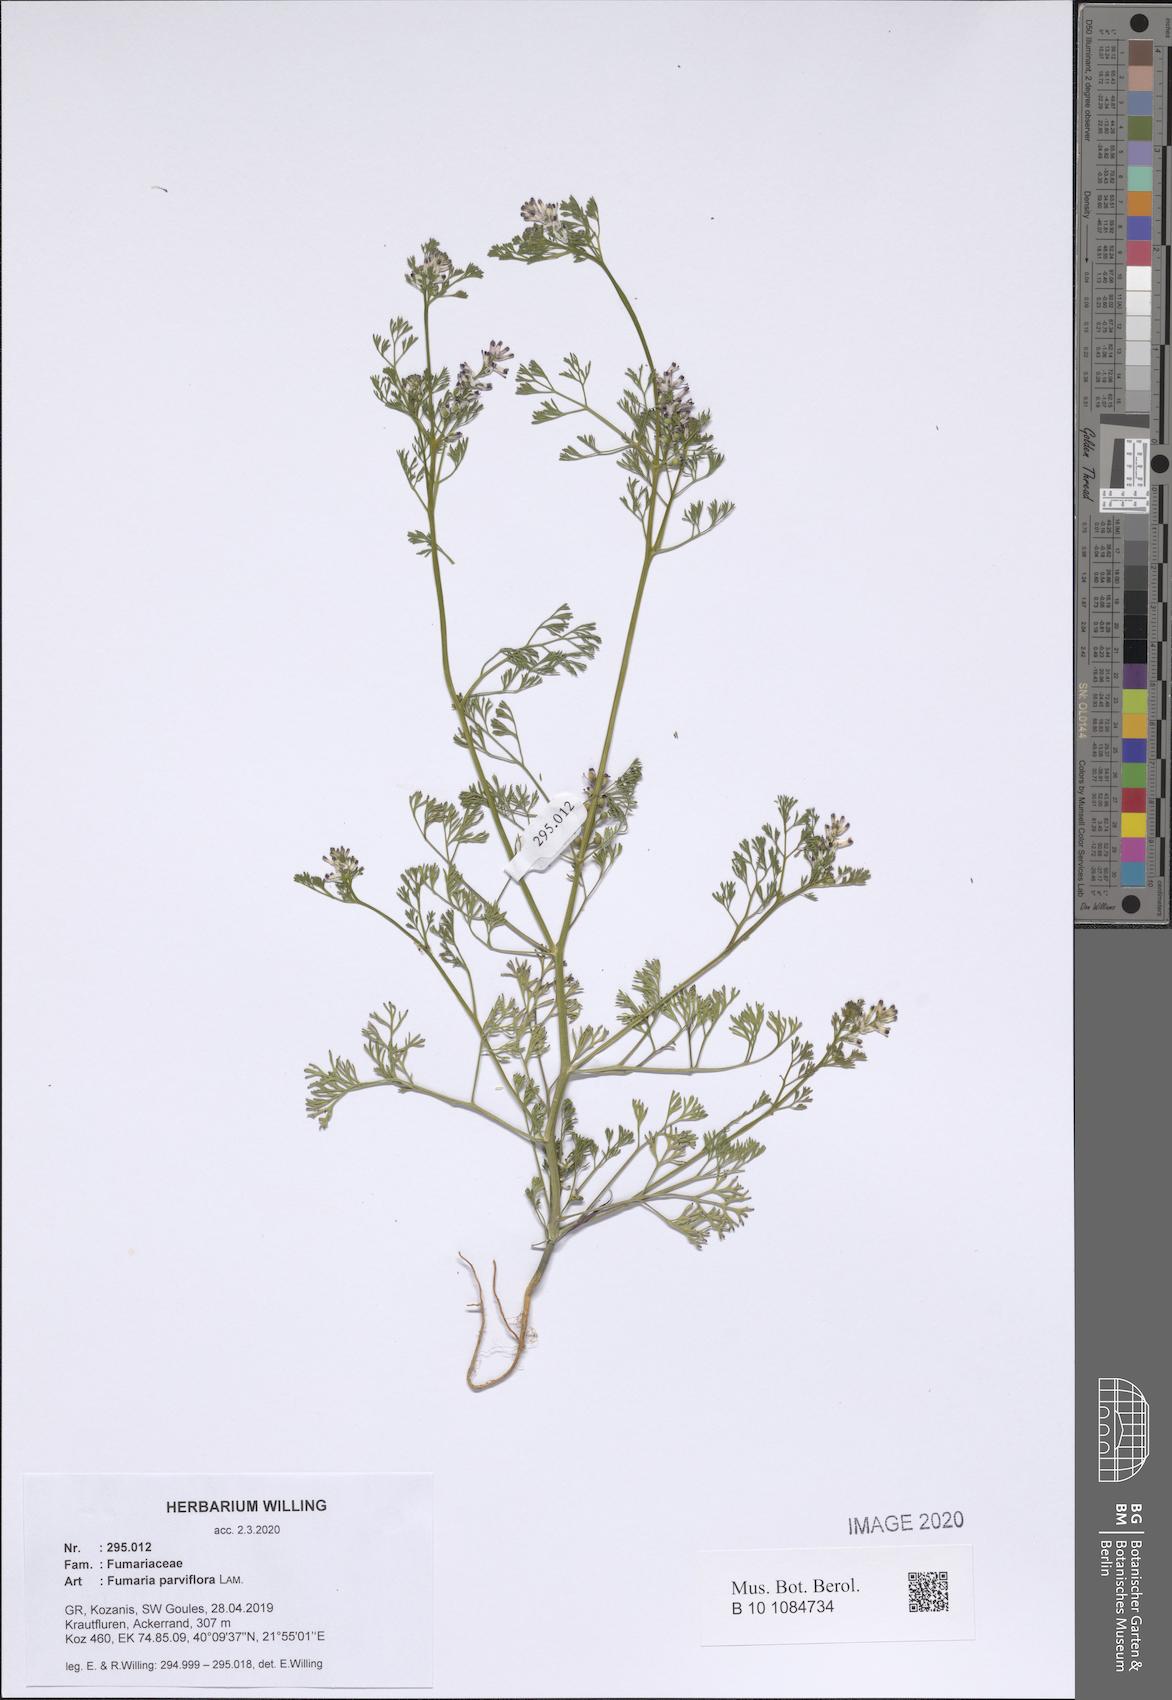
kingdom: Plantae
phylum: Tracheophyta
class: Magnoliopsida
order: Ranunculales
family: Papaveraceae
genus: Fumaria
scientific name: Fumaria parviflora
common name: Fine-leaved fumitory
